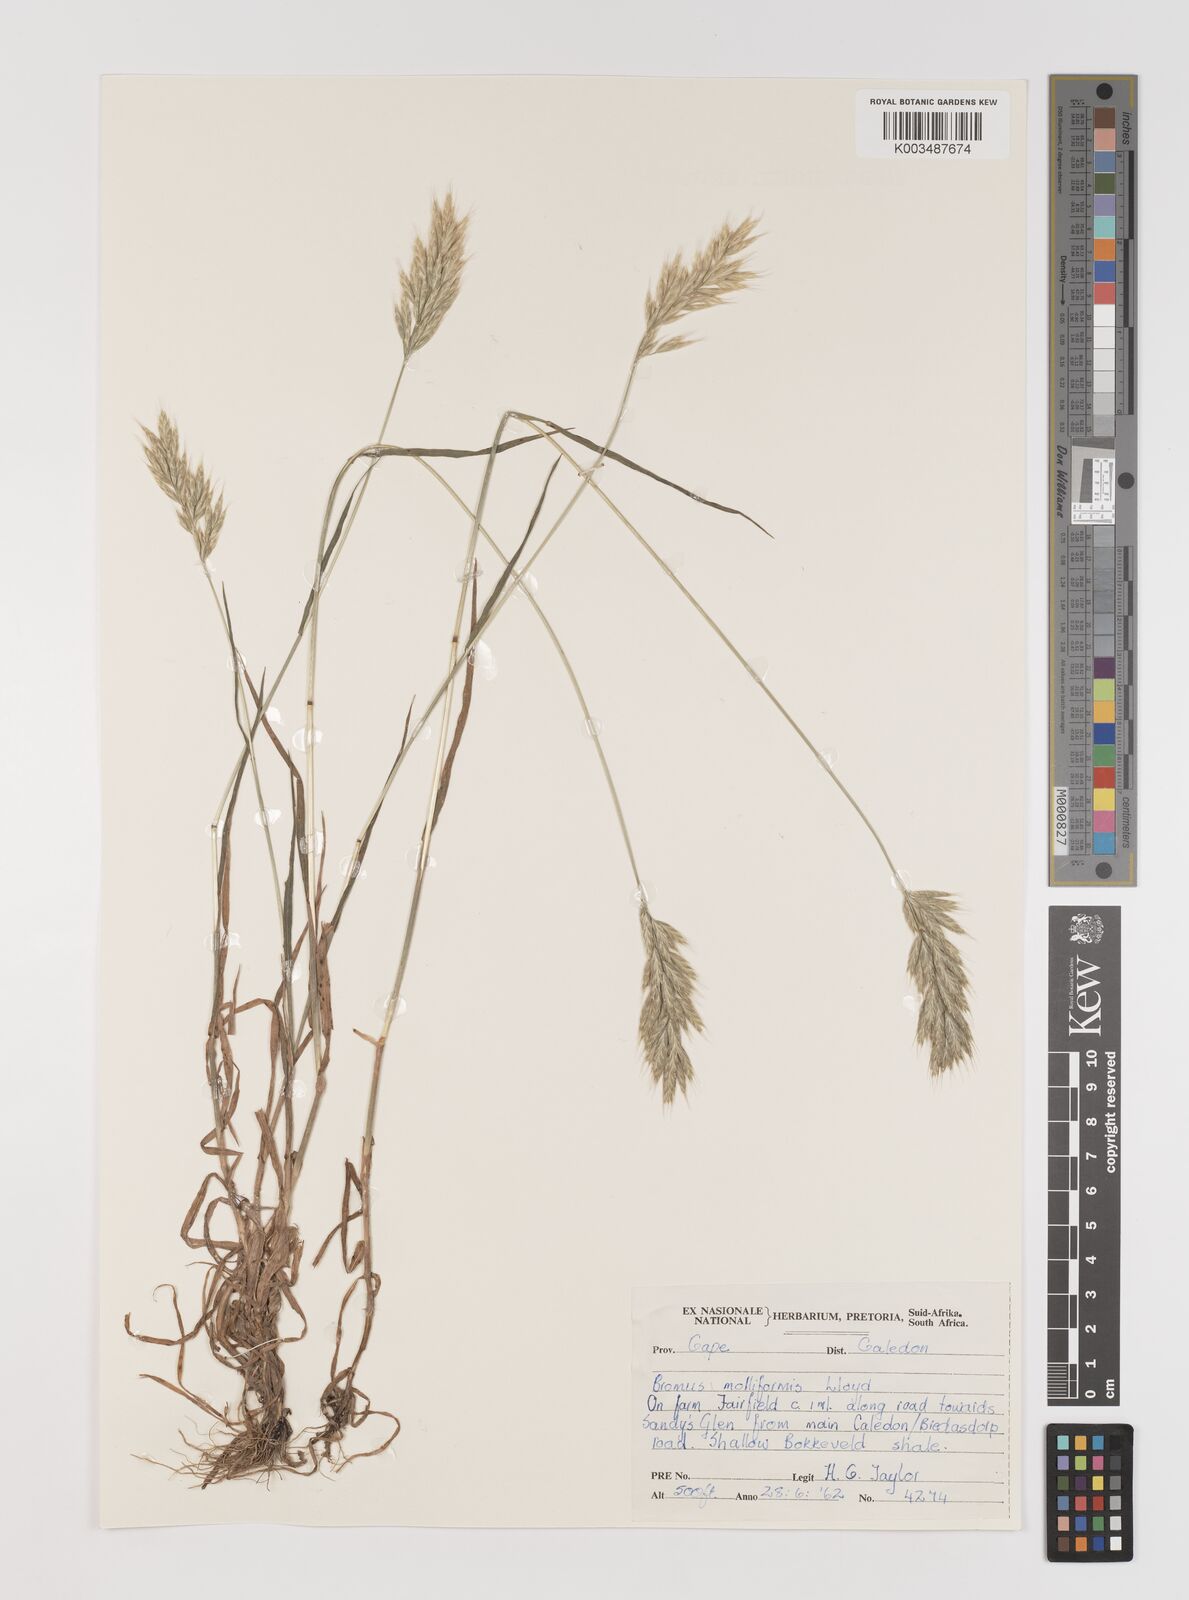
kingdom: Plantae
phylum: Tracheophyta
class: Liliopsida
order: Poales
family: Poaceae
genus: Bromus
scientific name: Bromus hordeaceus
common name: Soft brome
